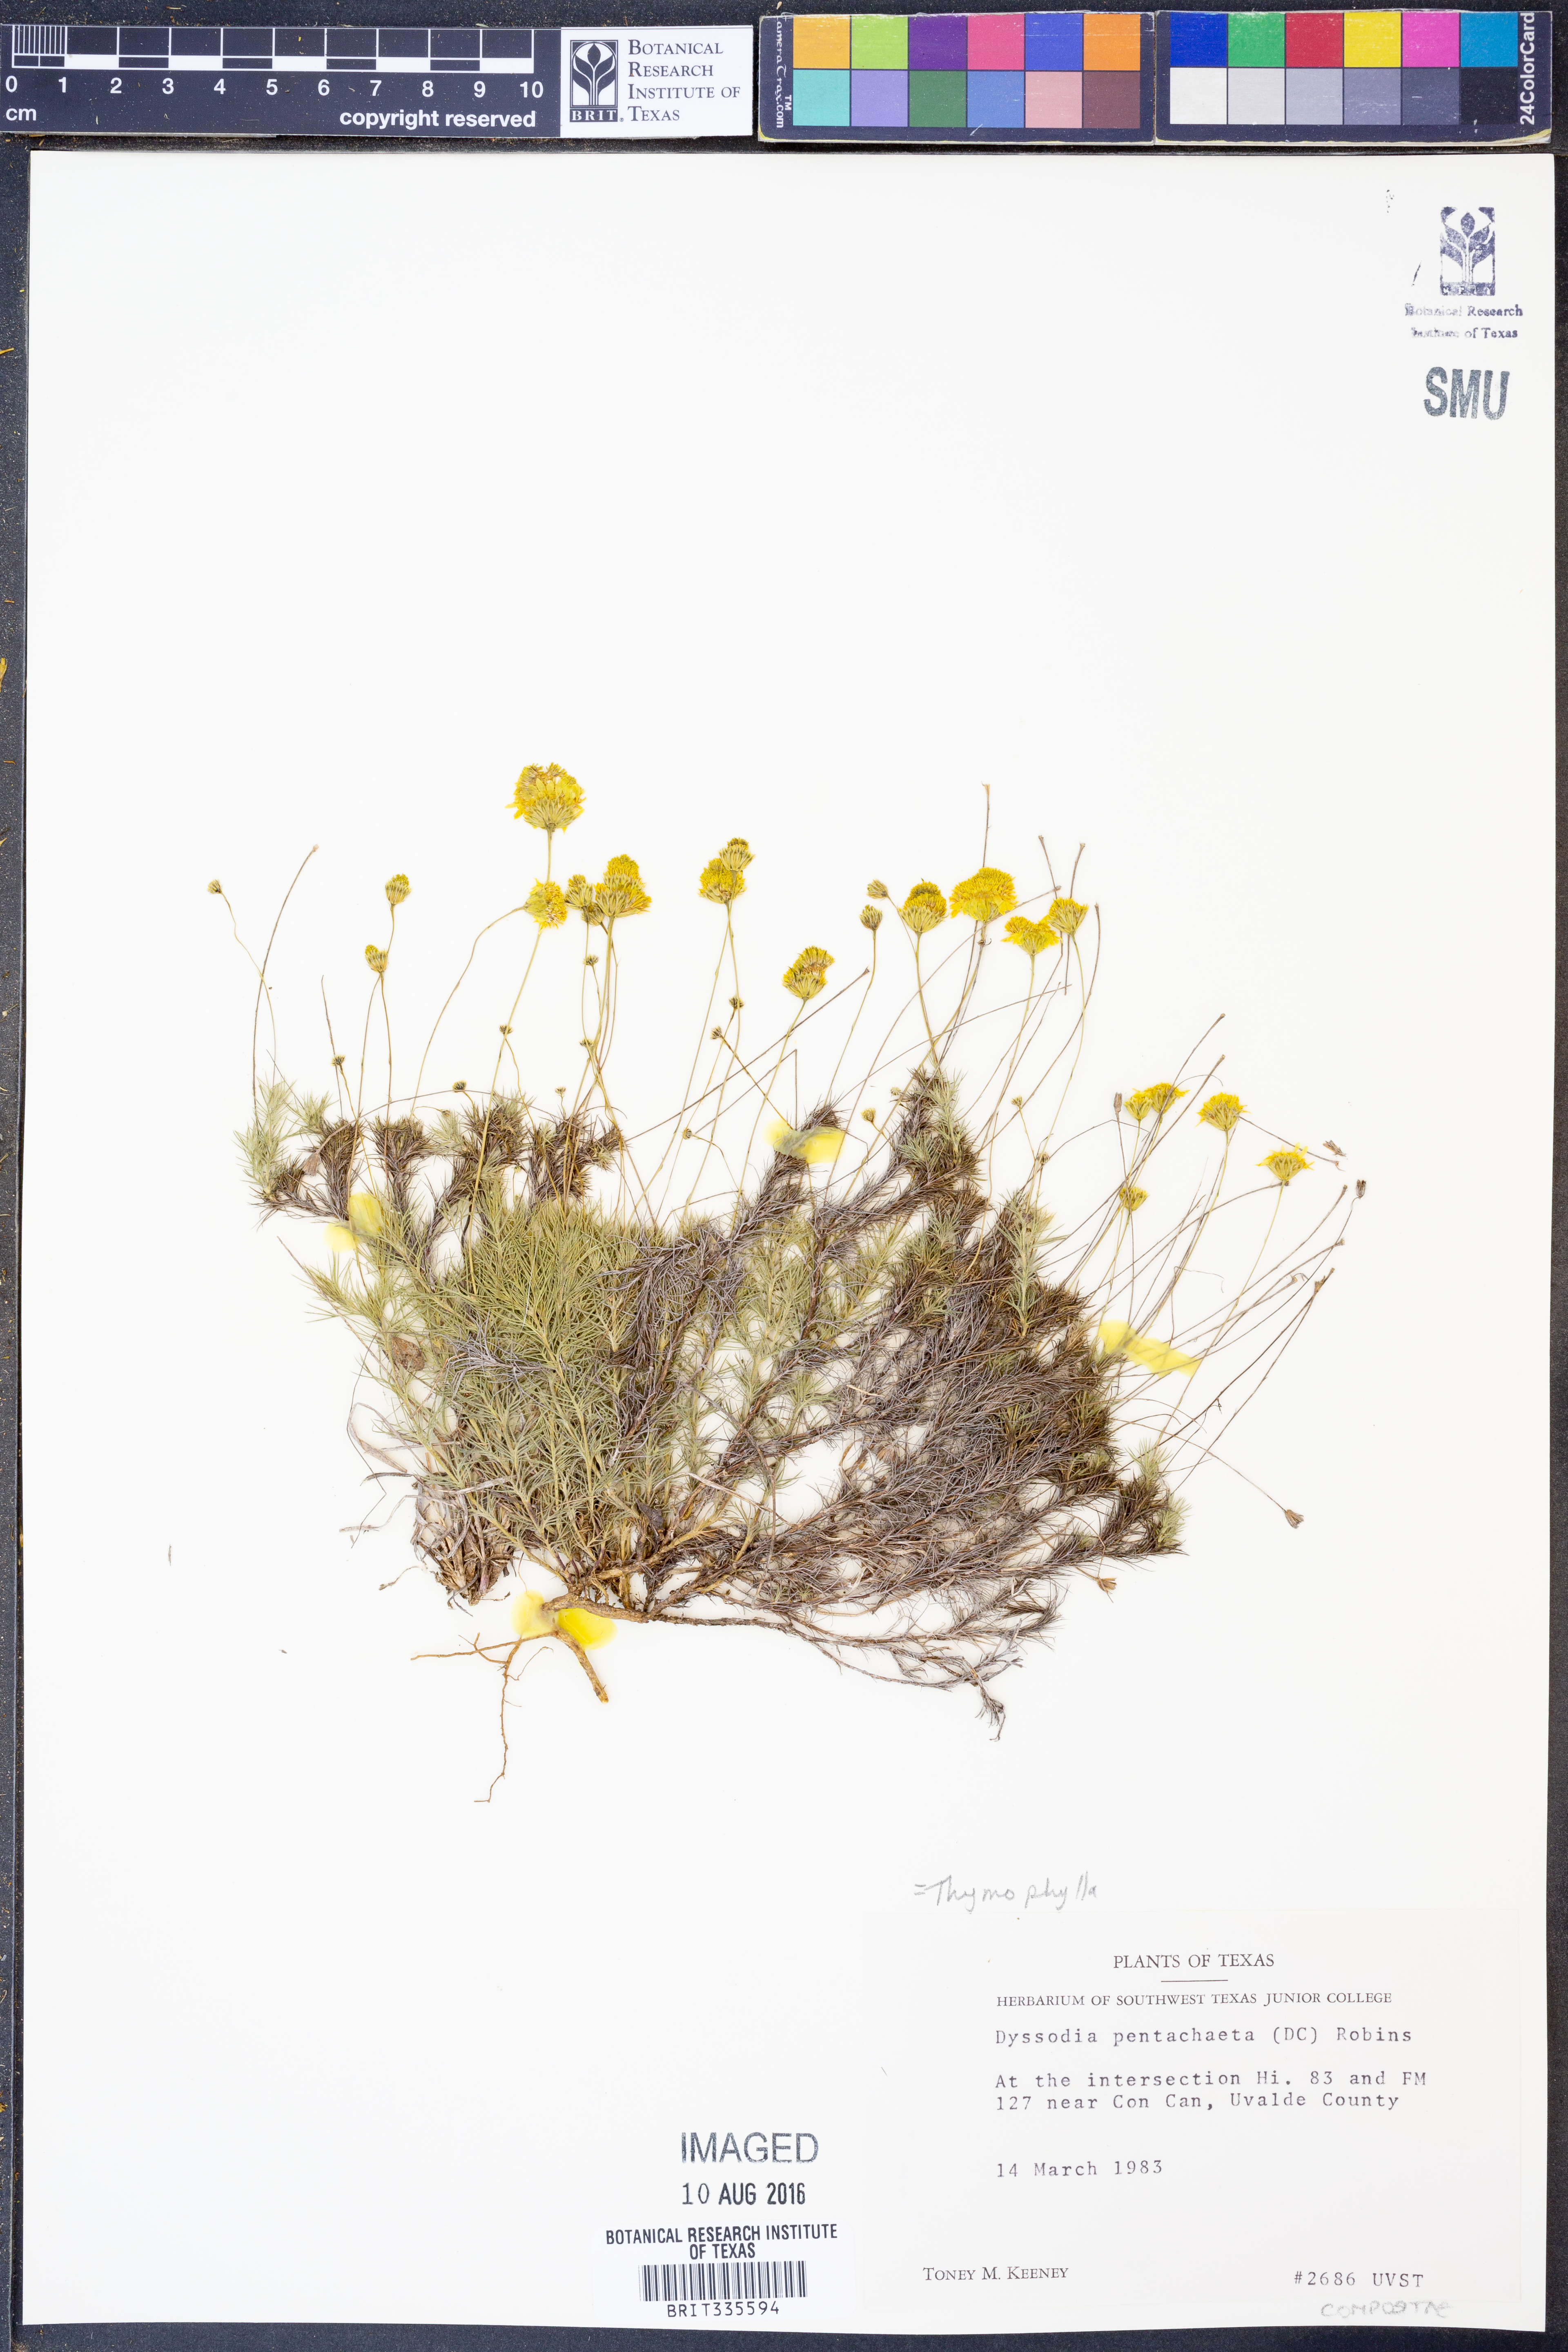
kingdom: Plantae
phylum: Tracheophyta
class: Magnoliopsida
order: Asterales
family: Asteraceae
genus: Thymophylla
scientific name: Thymophylla pentachaeta
